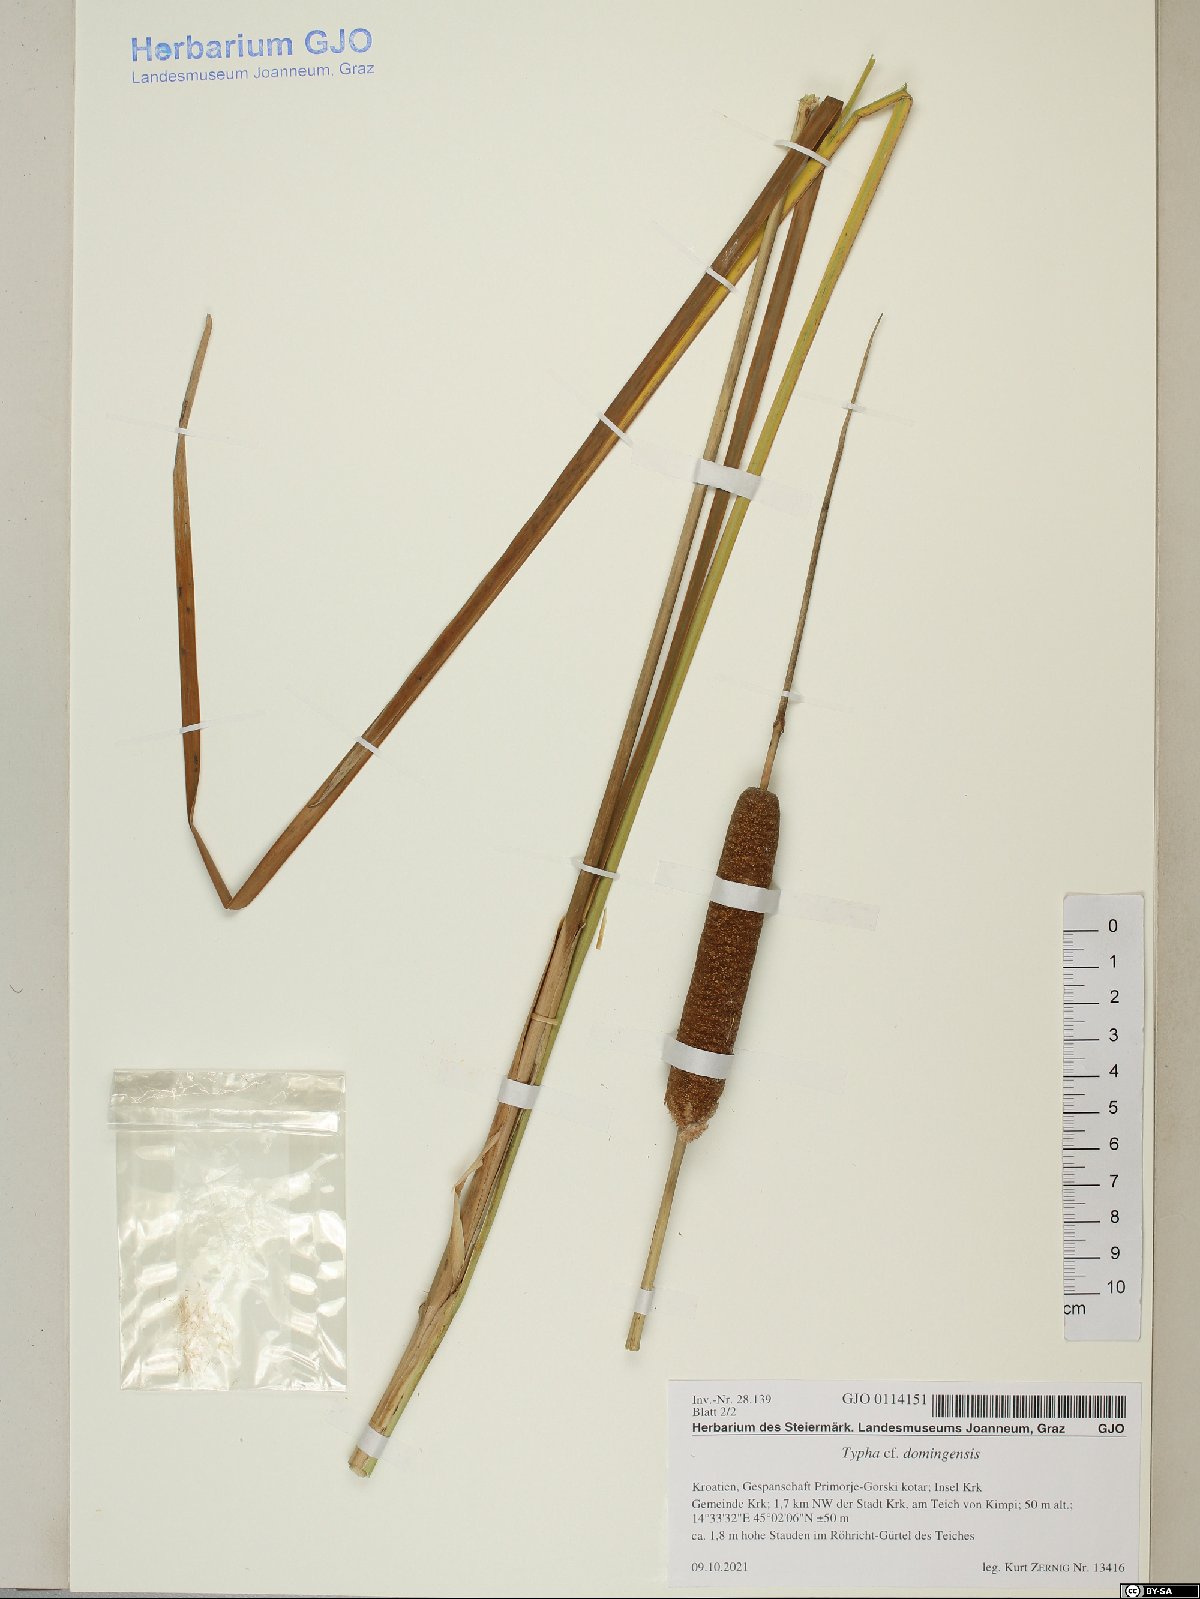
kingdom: Plantae
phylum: Tracheophyta
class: Liliopsida
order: Poales
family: Typhaceae
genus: Typha
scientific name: Typha angustifolia
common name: Lesser bulrush
